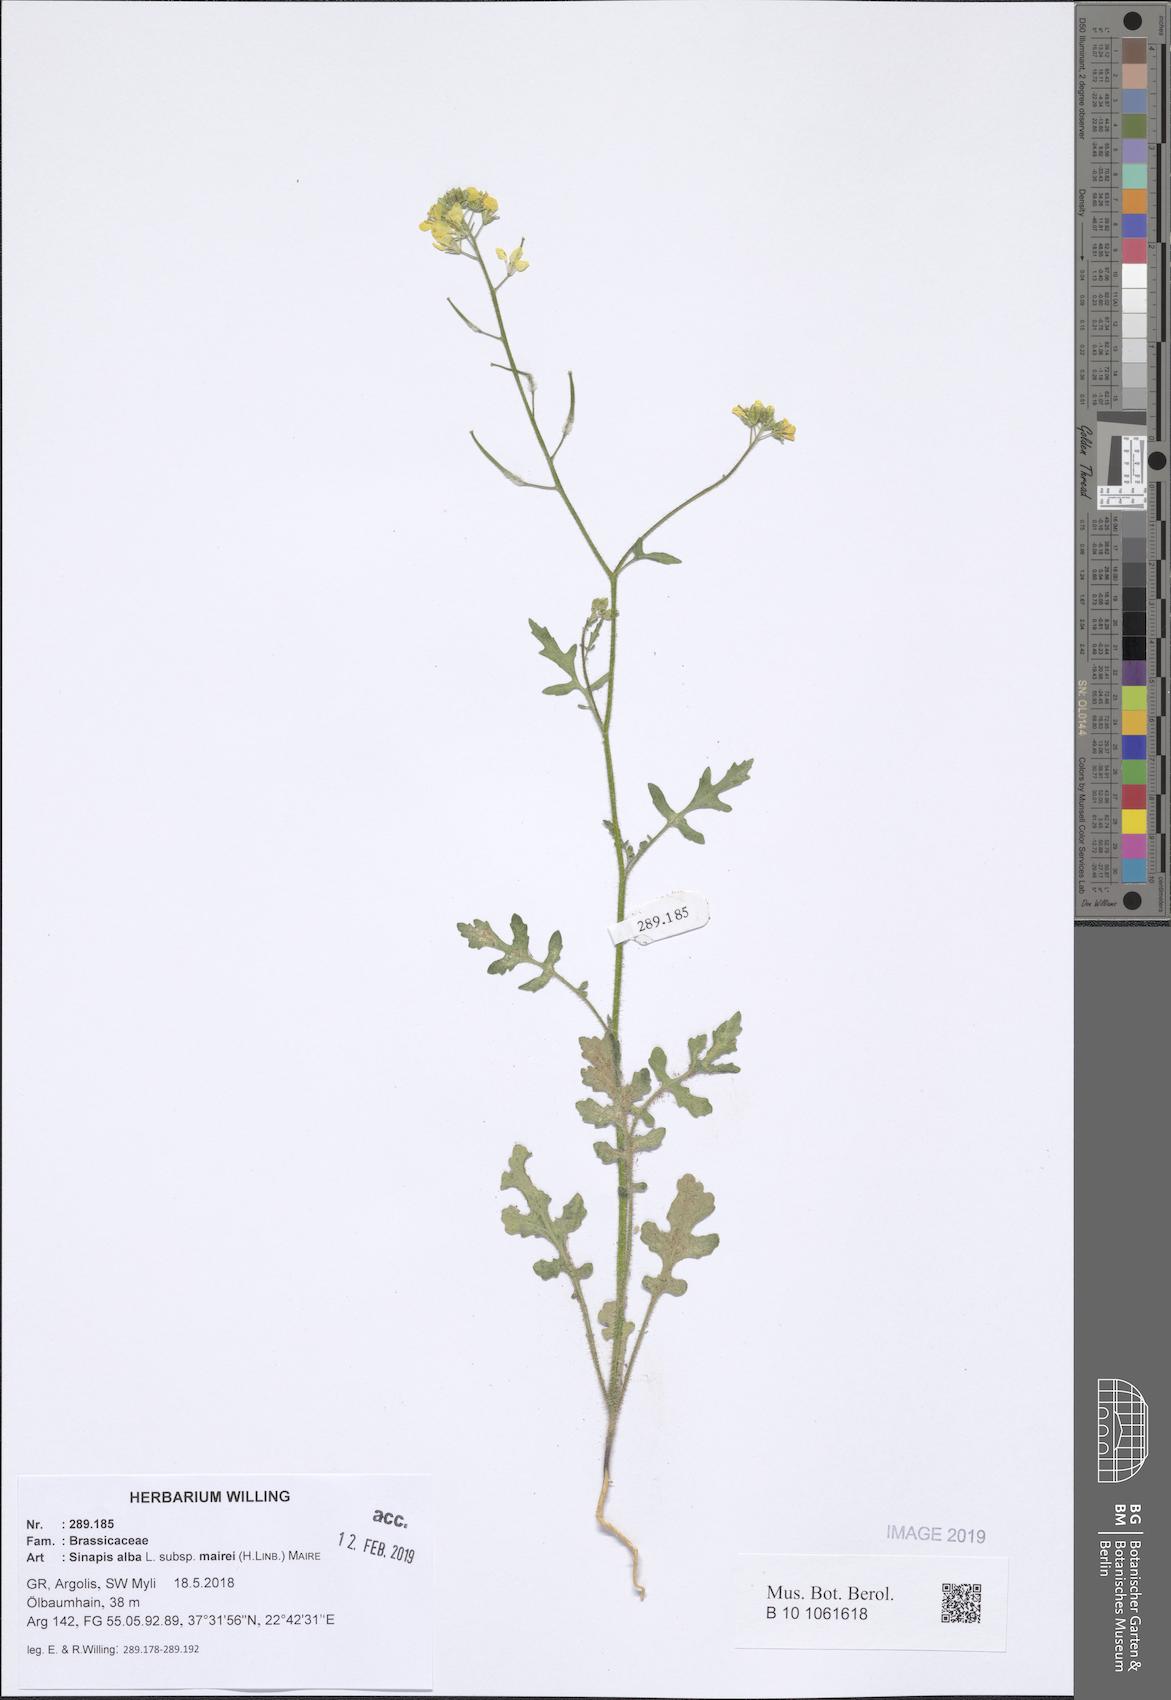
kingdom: Plantae
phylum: Tracheophyta
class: Magnoliopsida
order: Brassicales
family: Brassicaceae
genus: Sinapis
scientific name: Sinapis alba
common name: White mustard
